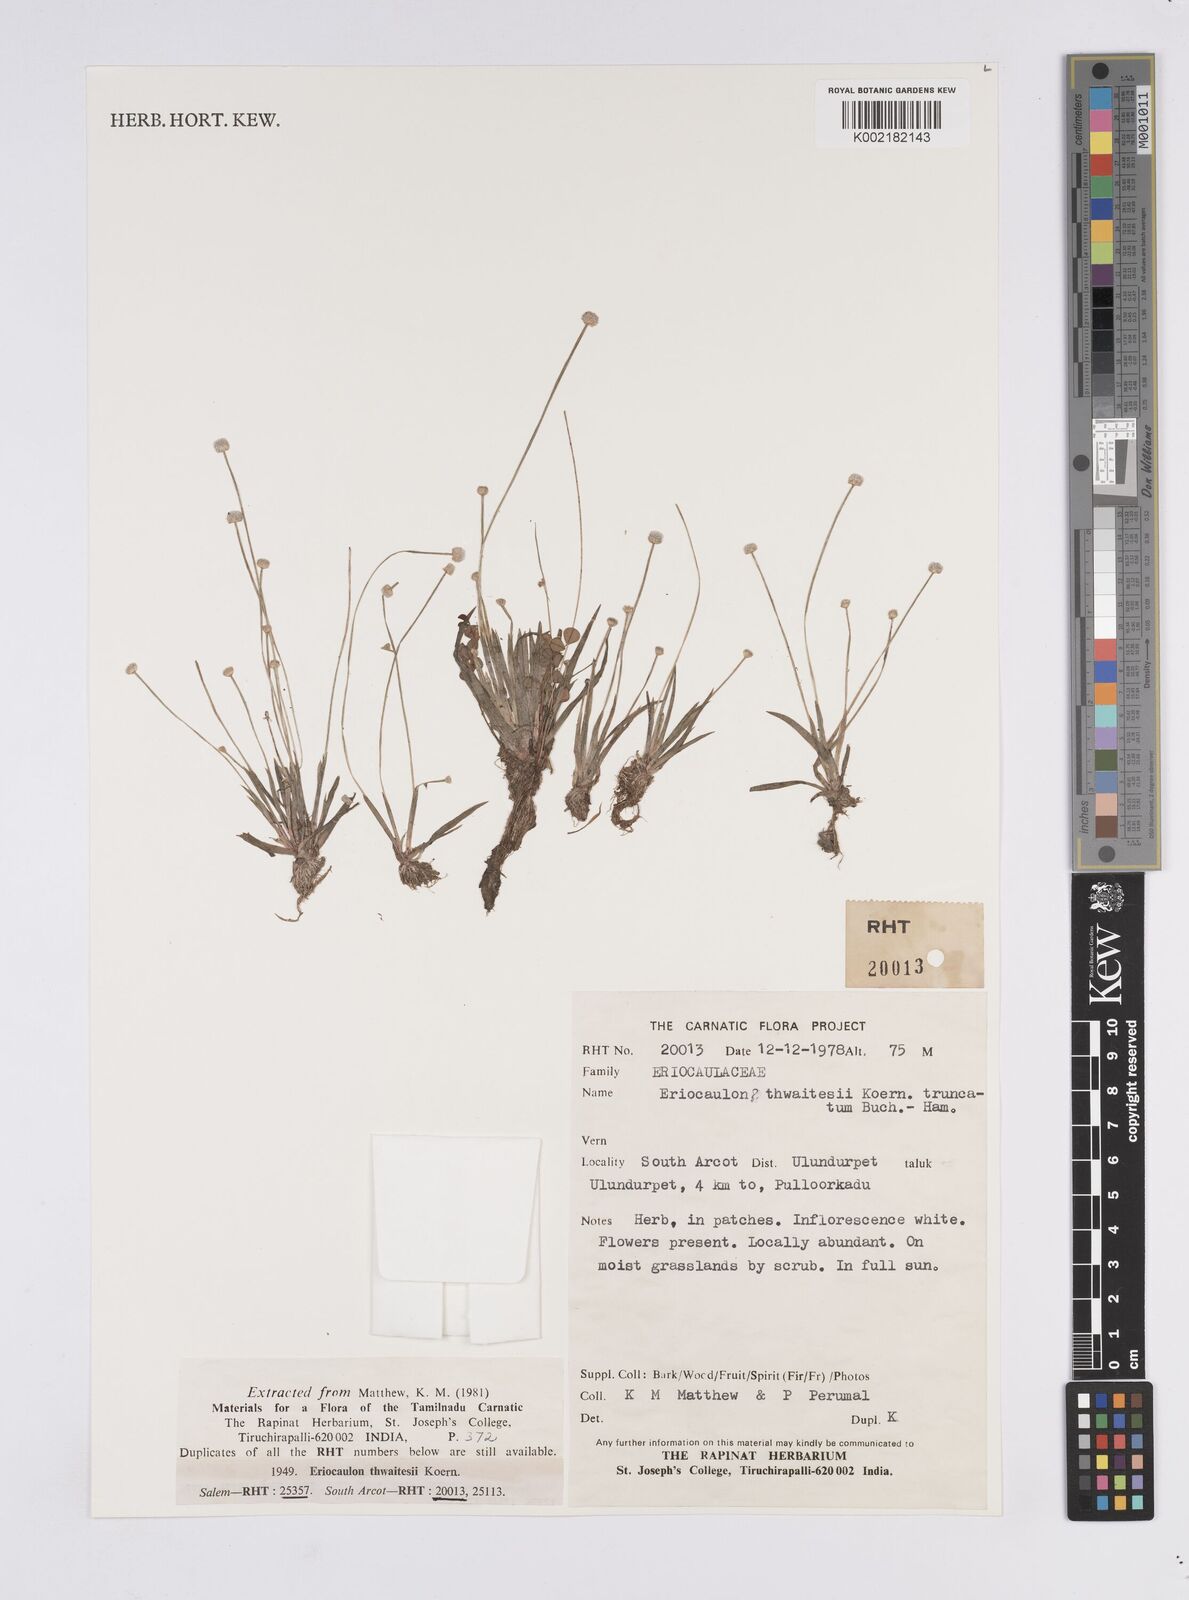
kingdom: Plantae
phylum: Tracheophyta
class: Liliopsida
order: Poales
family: Eriocaulaceae
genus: Eriocaulon
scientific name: Eriocaulon
